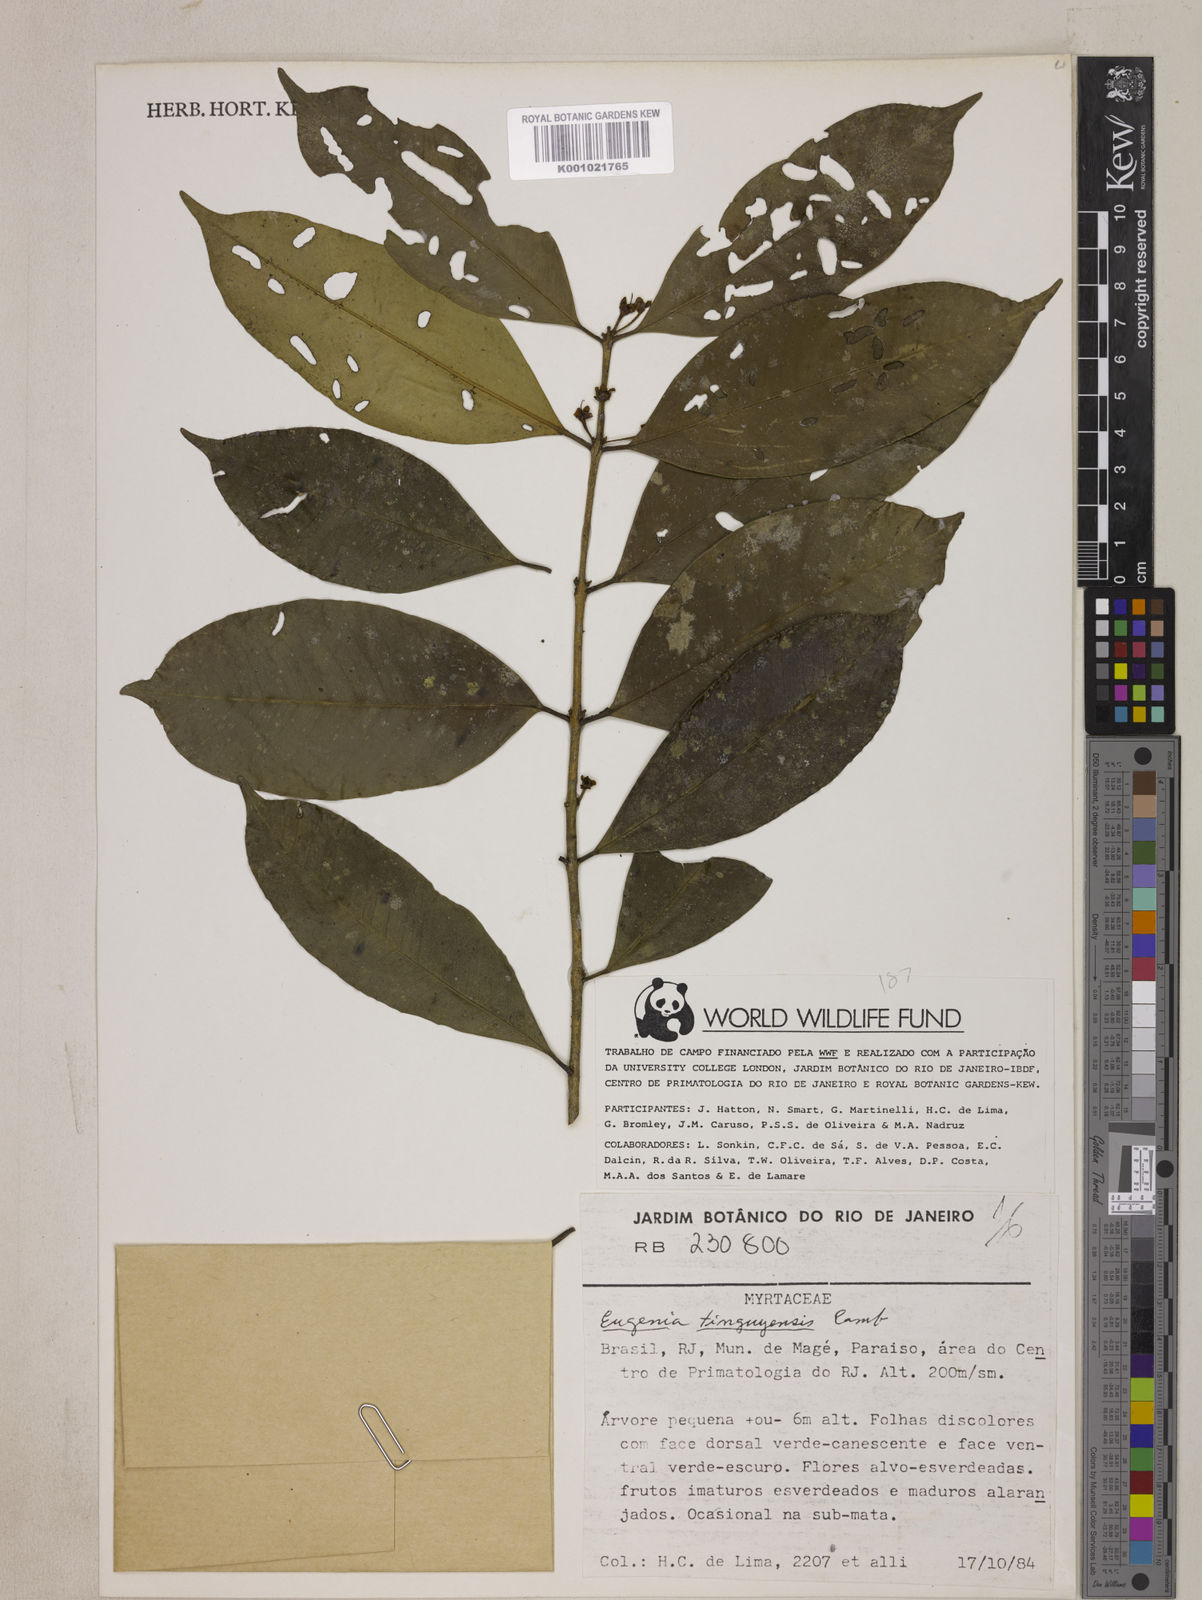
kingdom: Plantae
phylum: Tracheophyta
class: Magnoliopsida
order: Myrtales
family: Myrtaceae
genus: Eugenia
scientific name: Eugenia pisiformis
